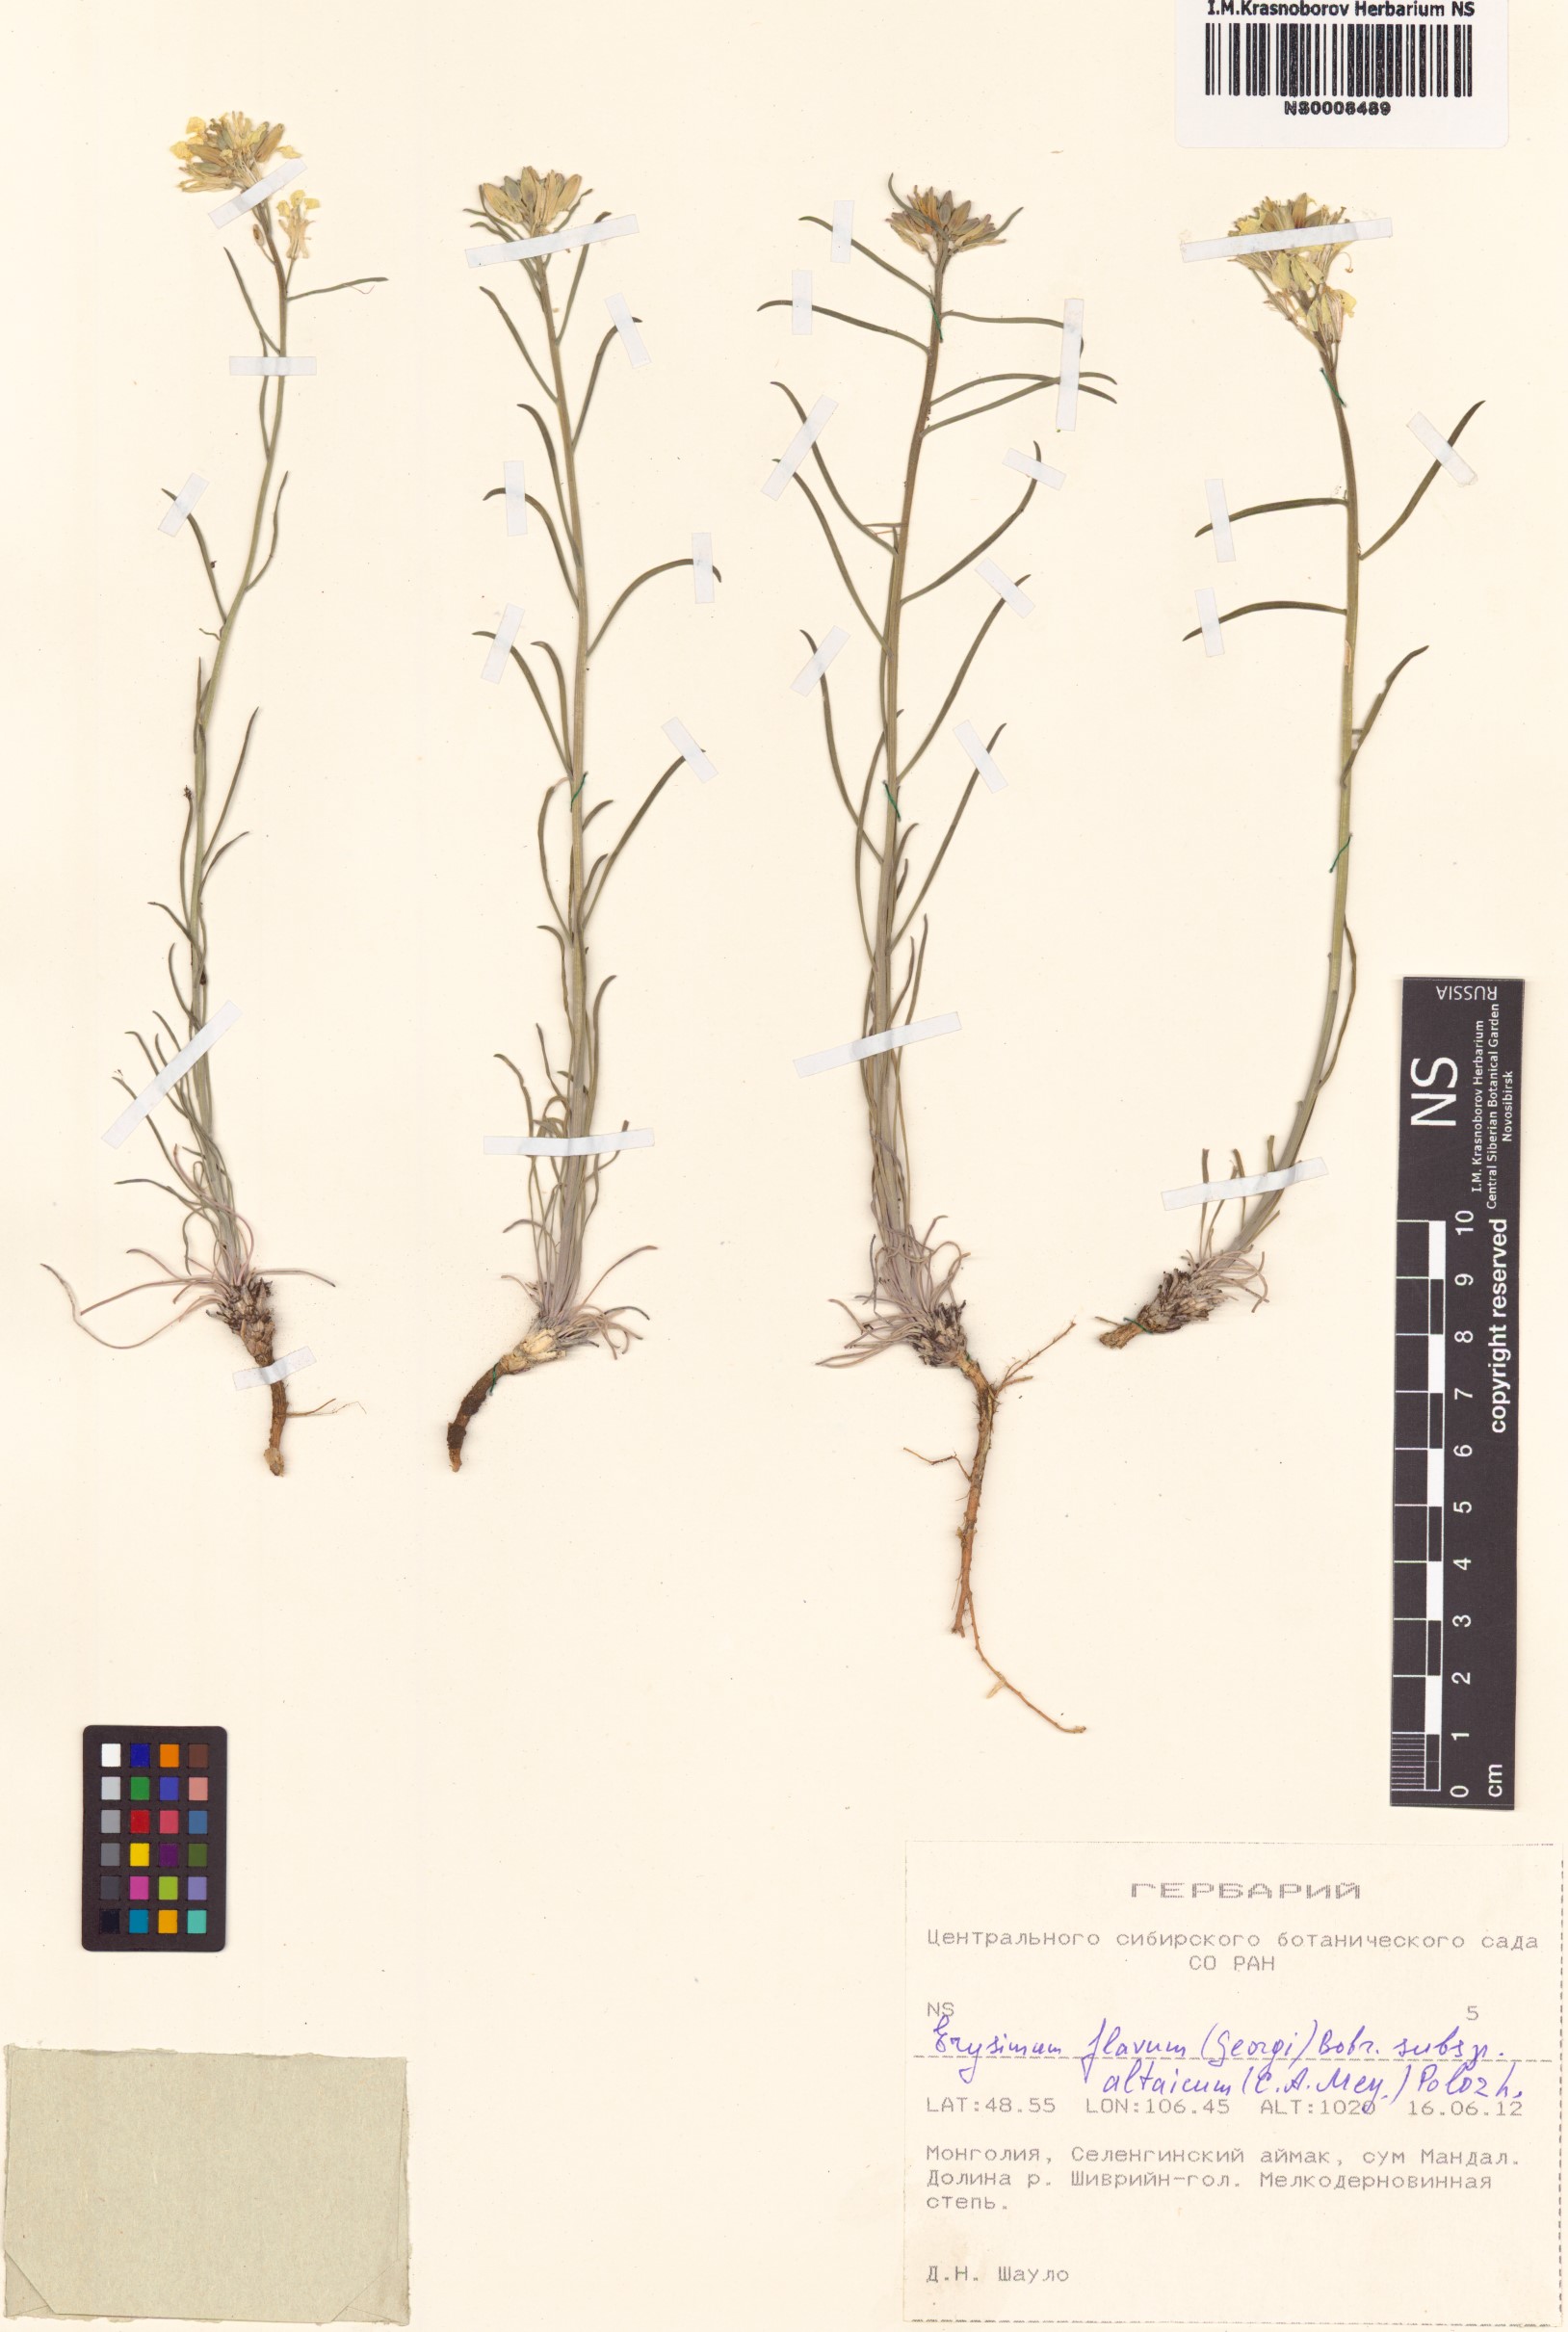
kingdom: Plantae
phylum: Tracheophyta
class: Magnoliopsida
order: Brassicales
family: Brassicaceae
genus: Erysimum
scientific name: Erysimum flavum
